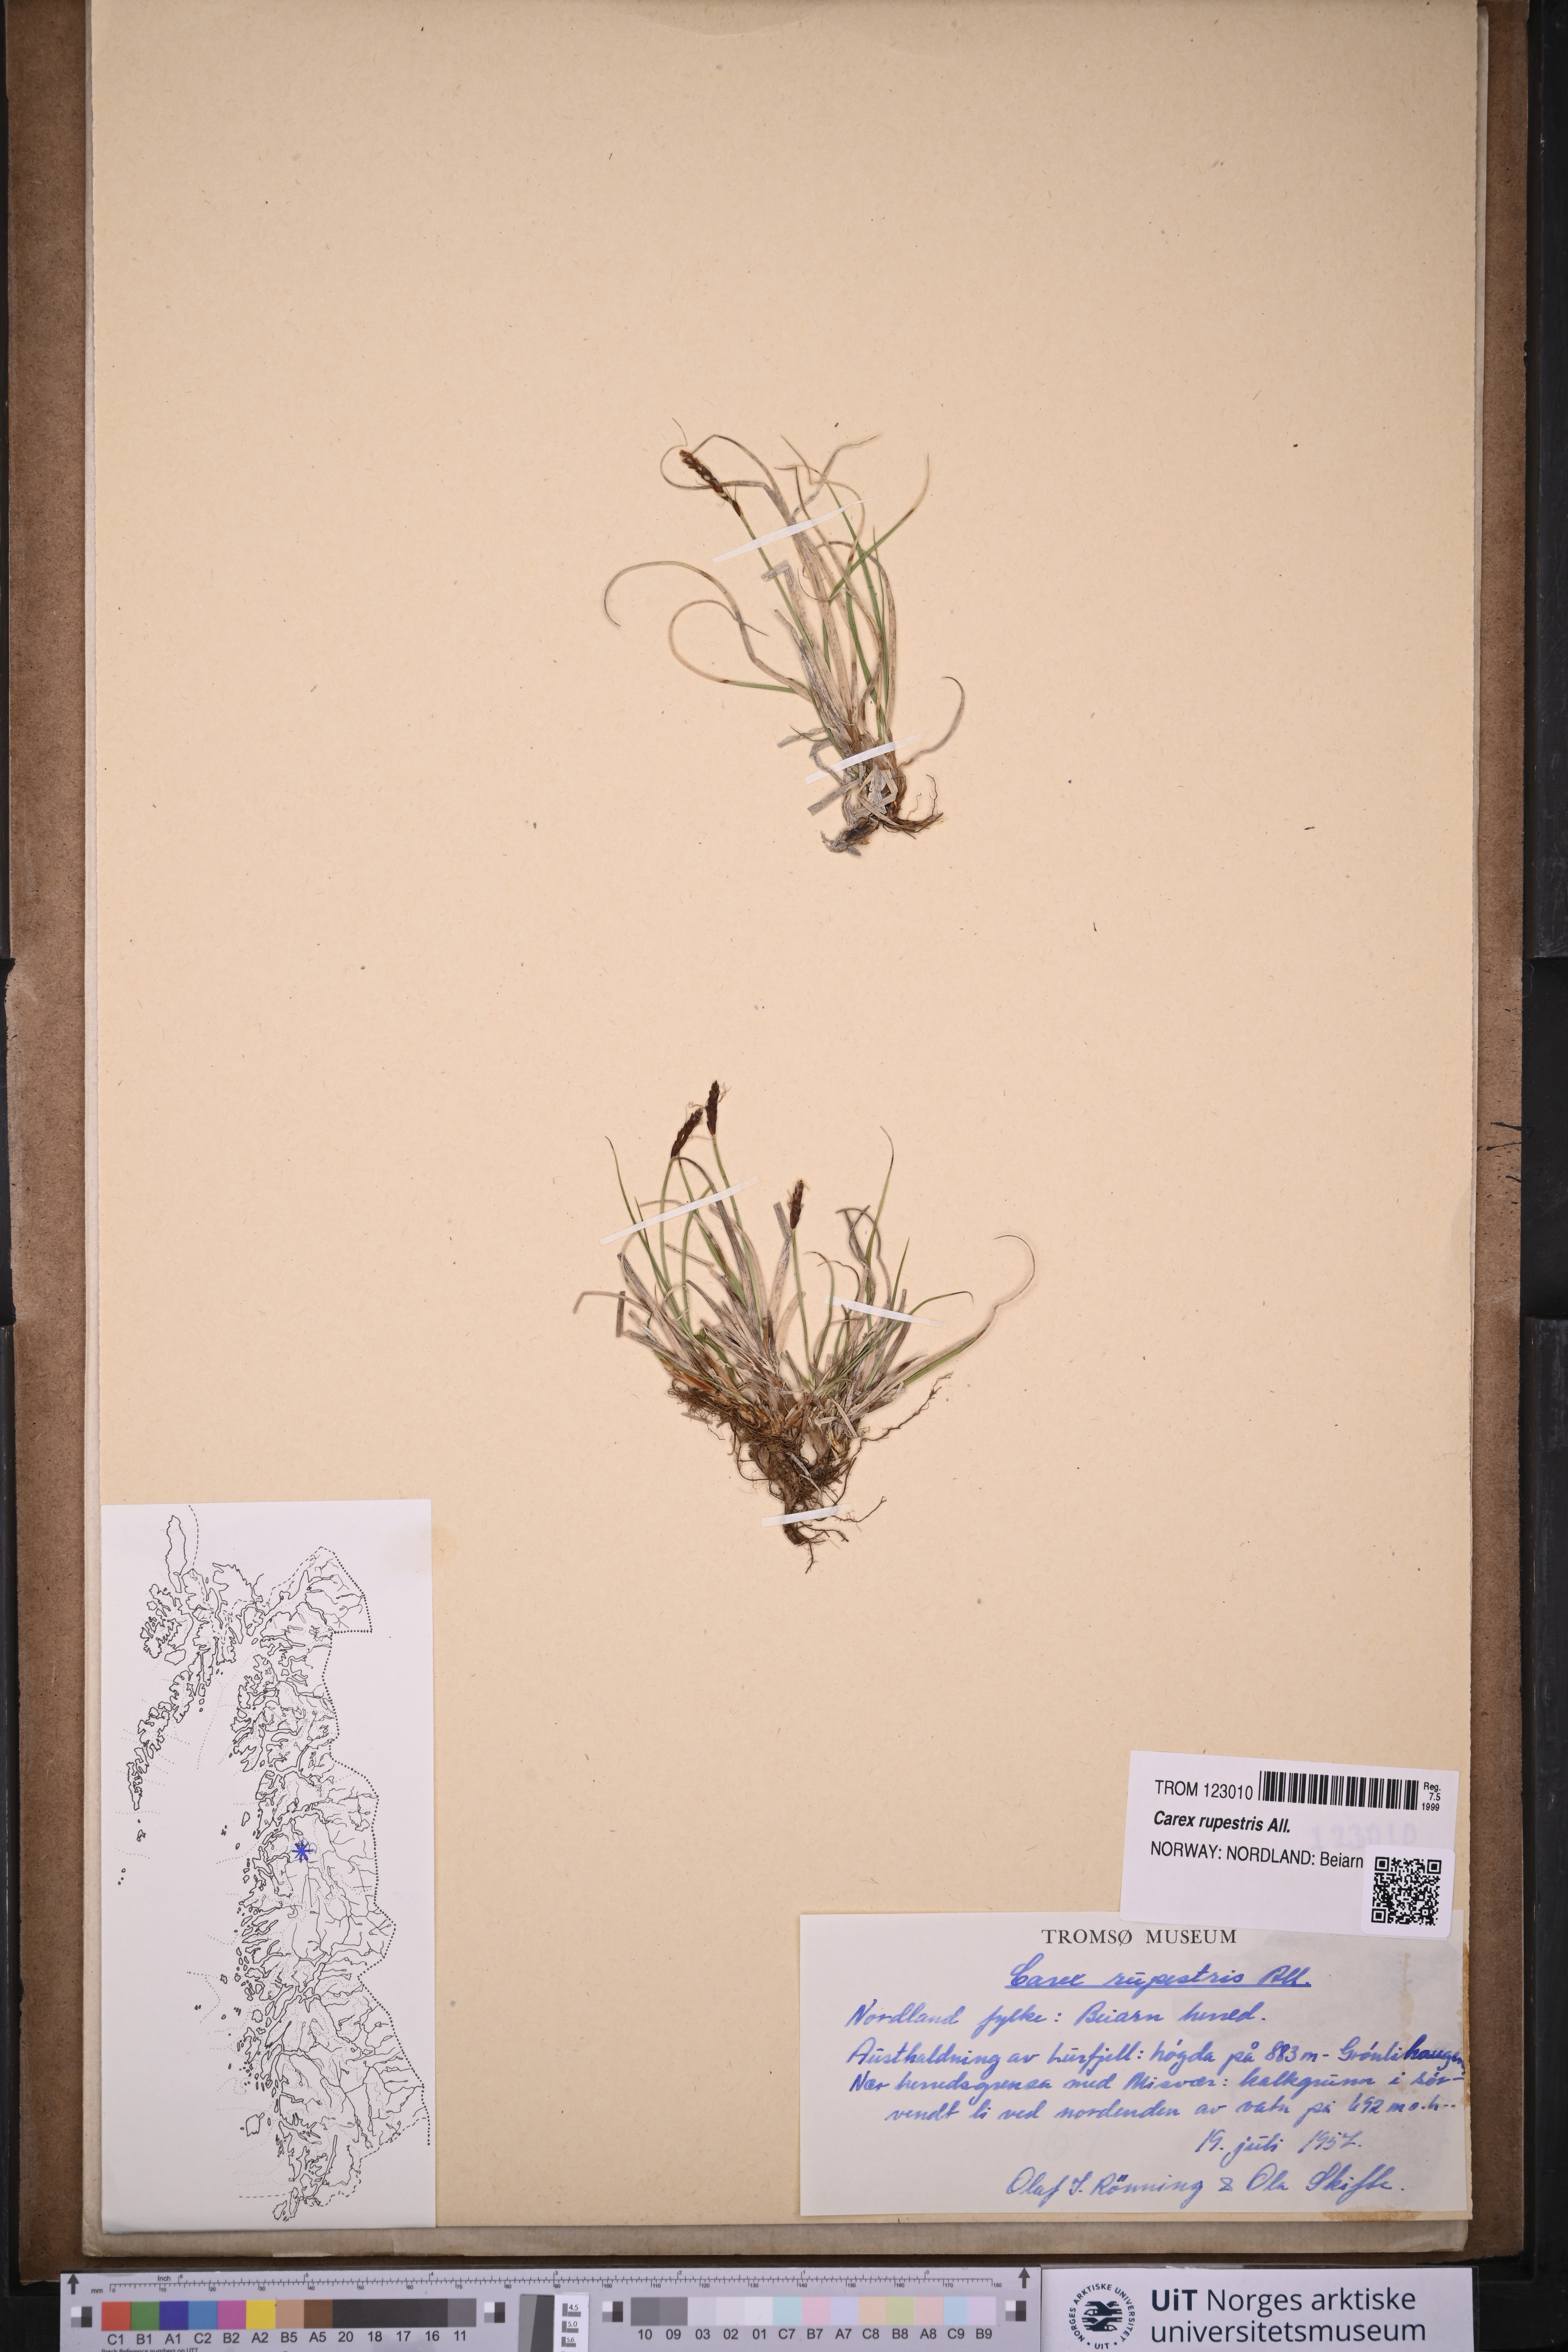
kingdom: Plantae
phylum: Tracheophyta
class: Liliopsida
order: Poales
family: Cyperaceae
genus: Carex
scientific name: Carex rupestris
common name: Rock sedge
